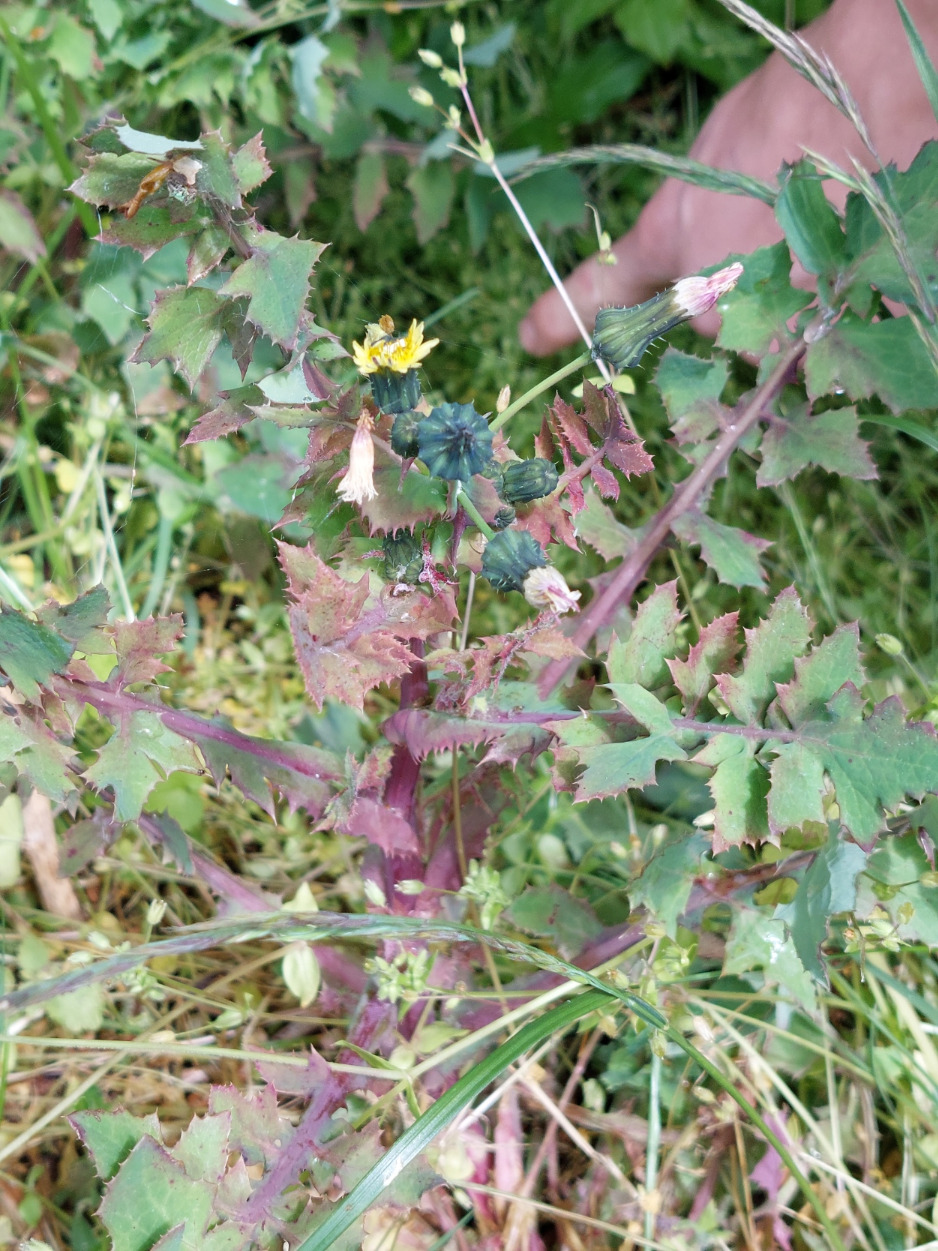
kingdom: Plantae
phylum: Tracheophyta
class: Magnoliopsida
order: Asterales
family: Asteraceae
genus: Sonchus
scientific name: Sonchus oleraceus
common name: Almindelig svinemælk
